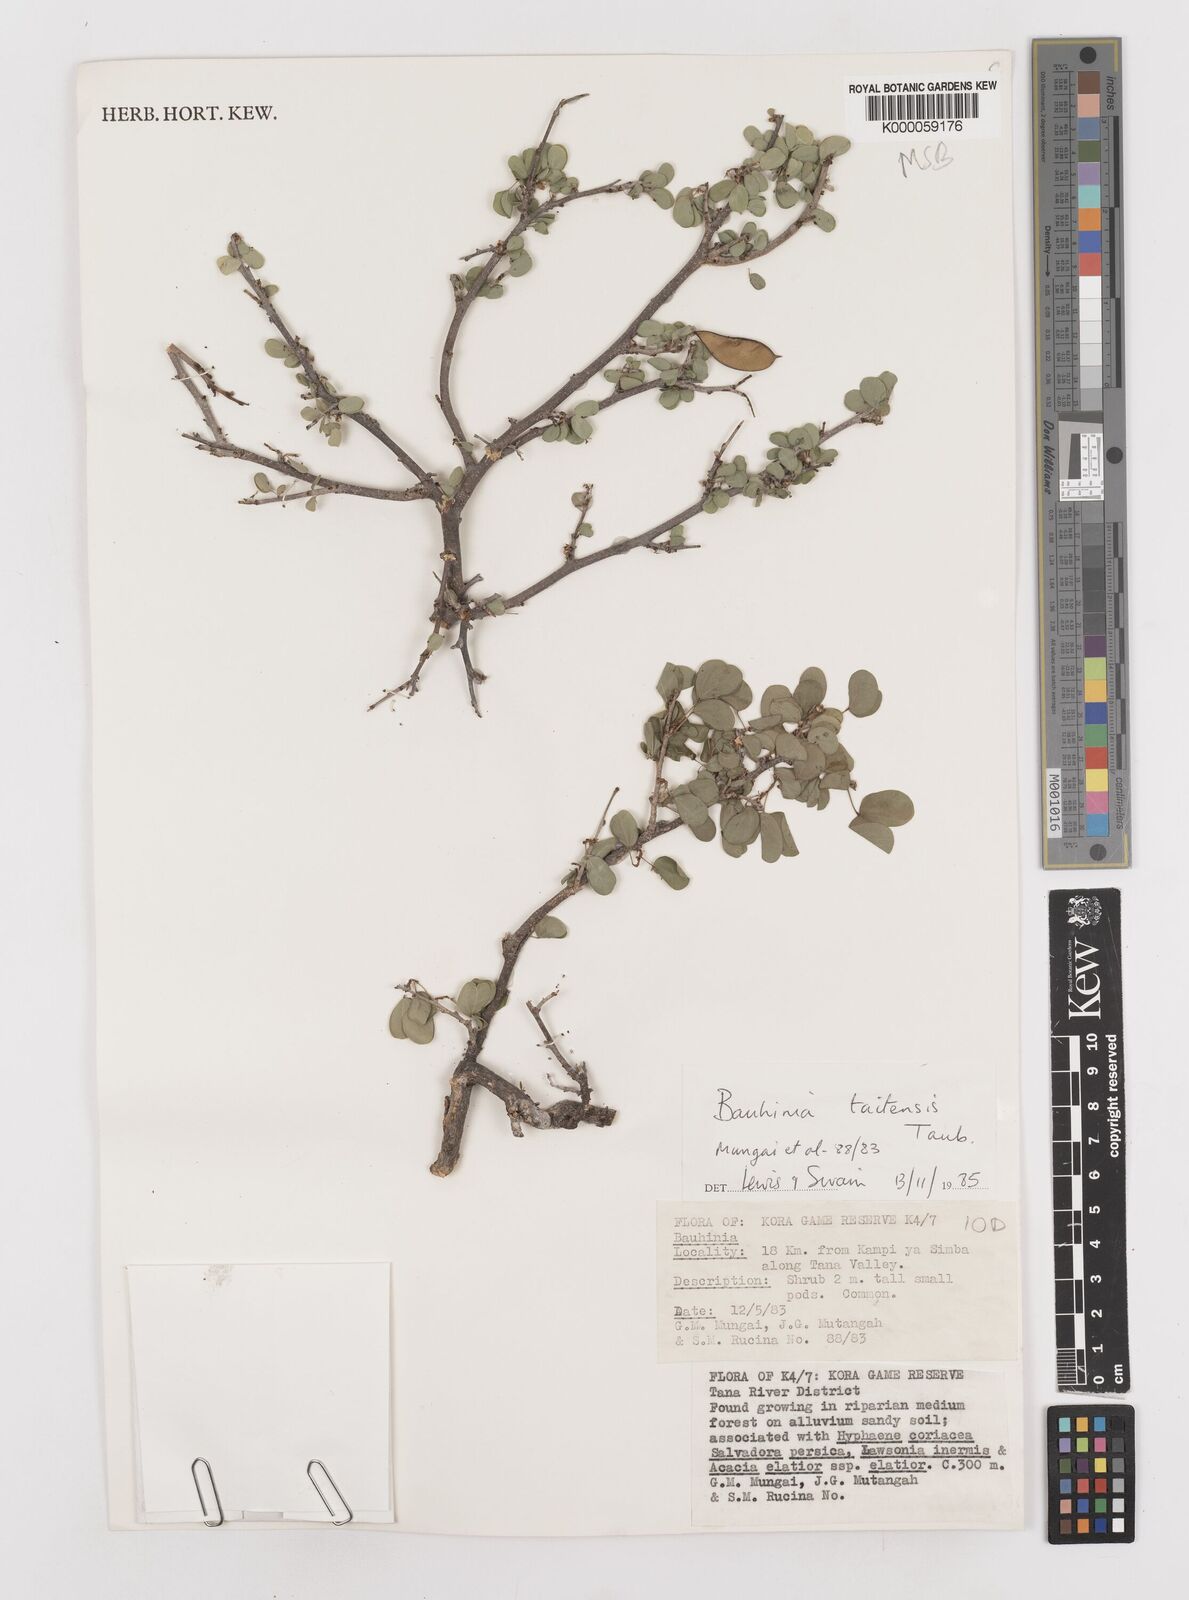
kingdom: Plantae
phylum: Tracheophyta
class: Magnoliopsida
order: Fabales
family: Fabaceae
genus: Bauhinia
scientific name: Bauhinia taitensis
